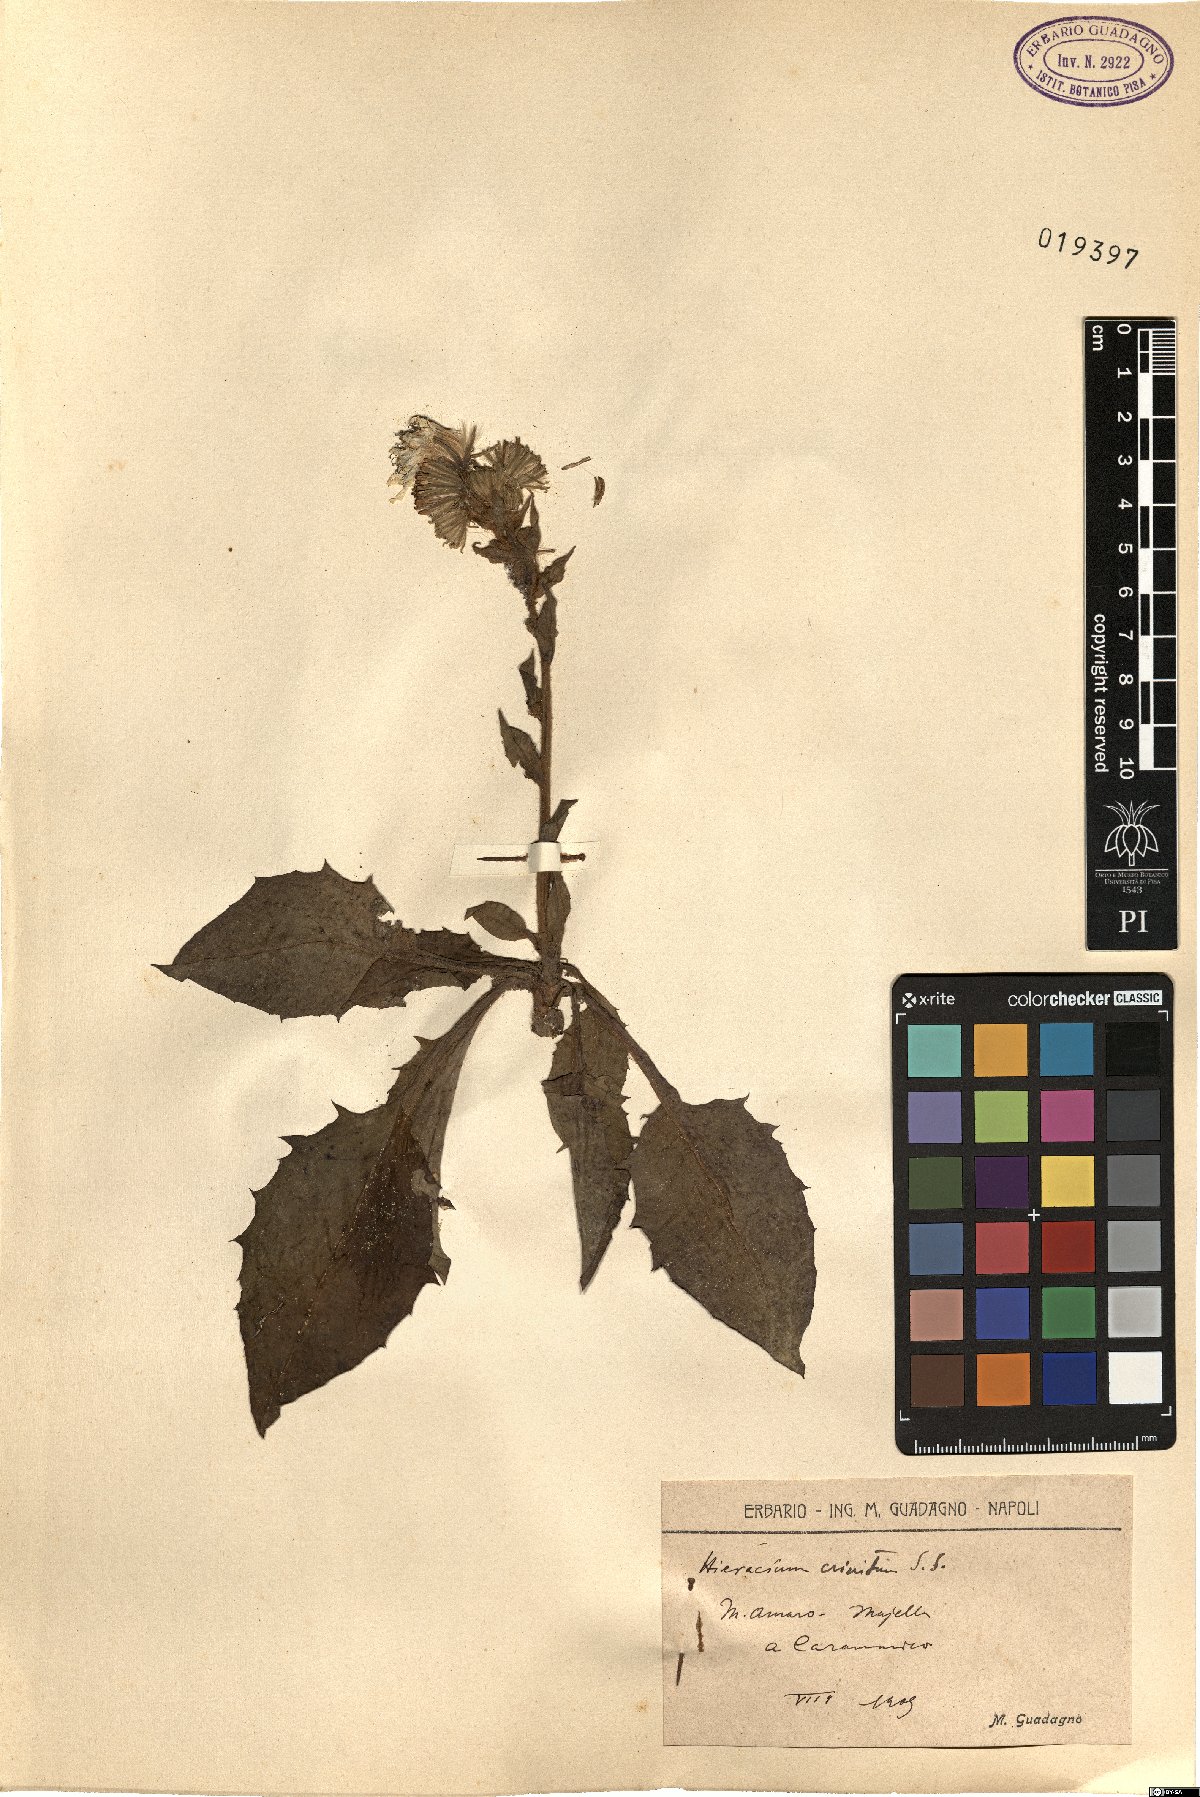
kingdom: Plantae
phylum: Tracheophyta
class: Magnoliopsida
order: Asterales
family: Asteraceae
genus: Hieracium
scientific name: Hieracium racemosum
